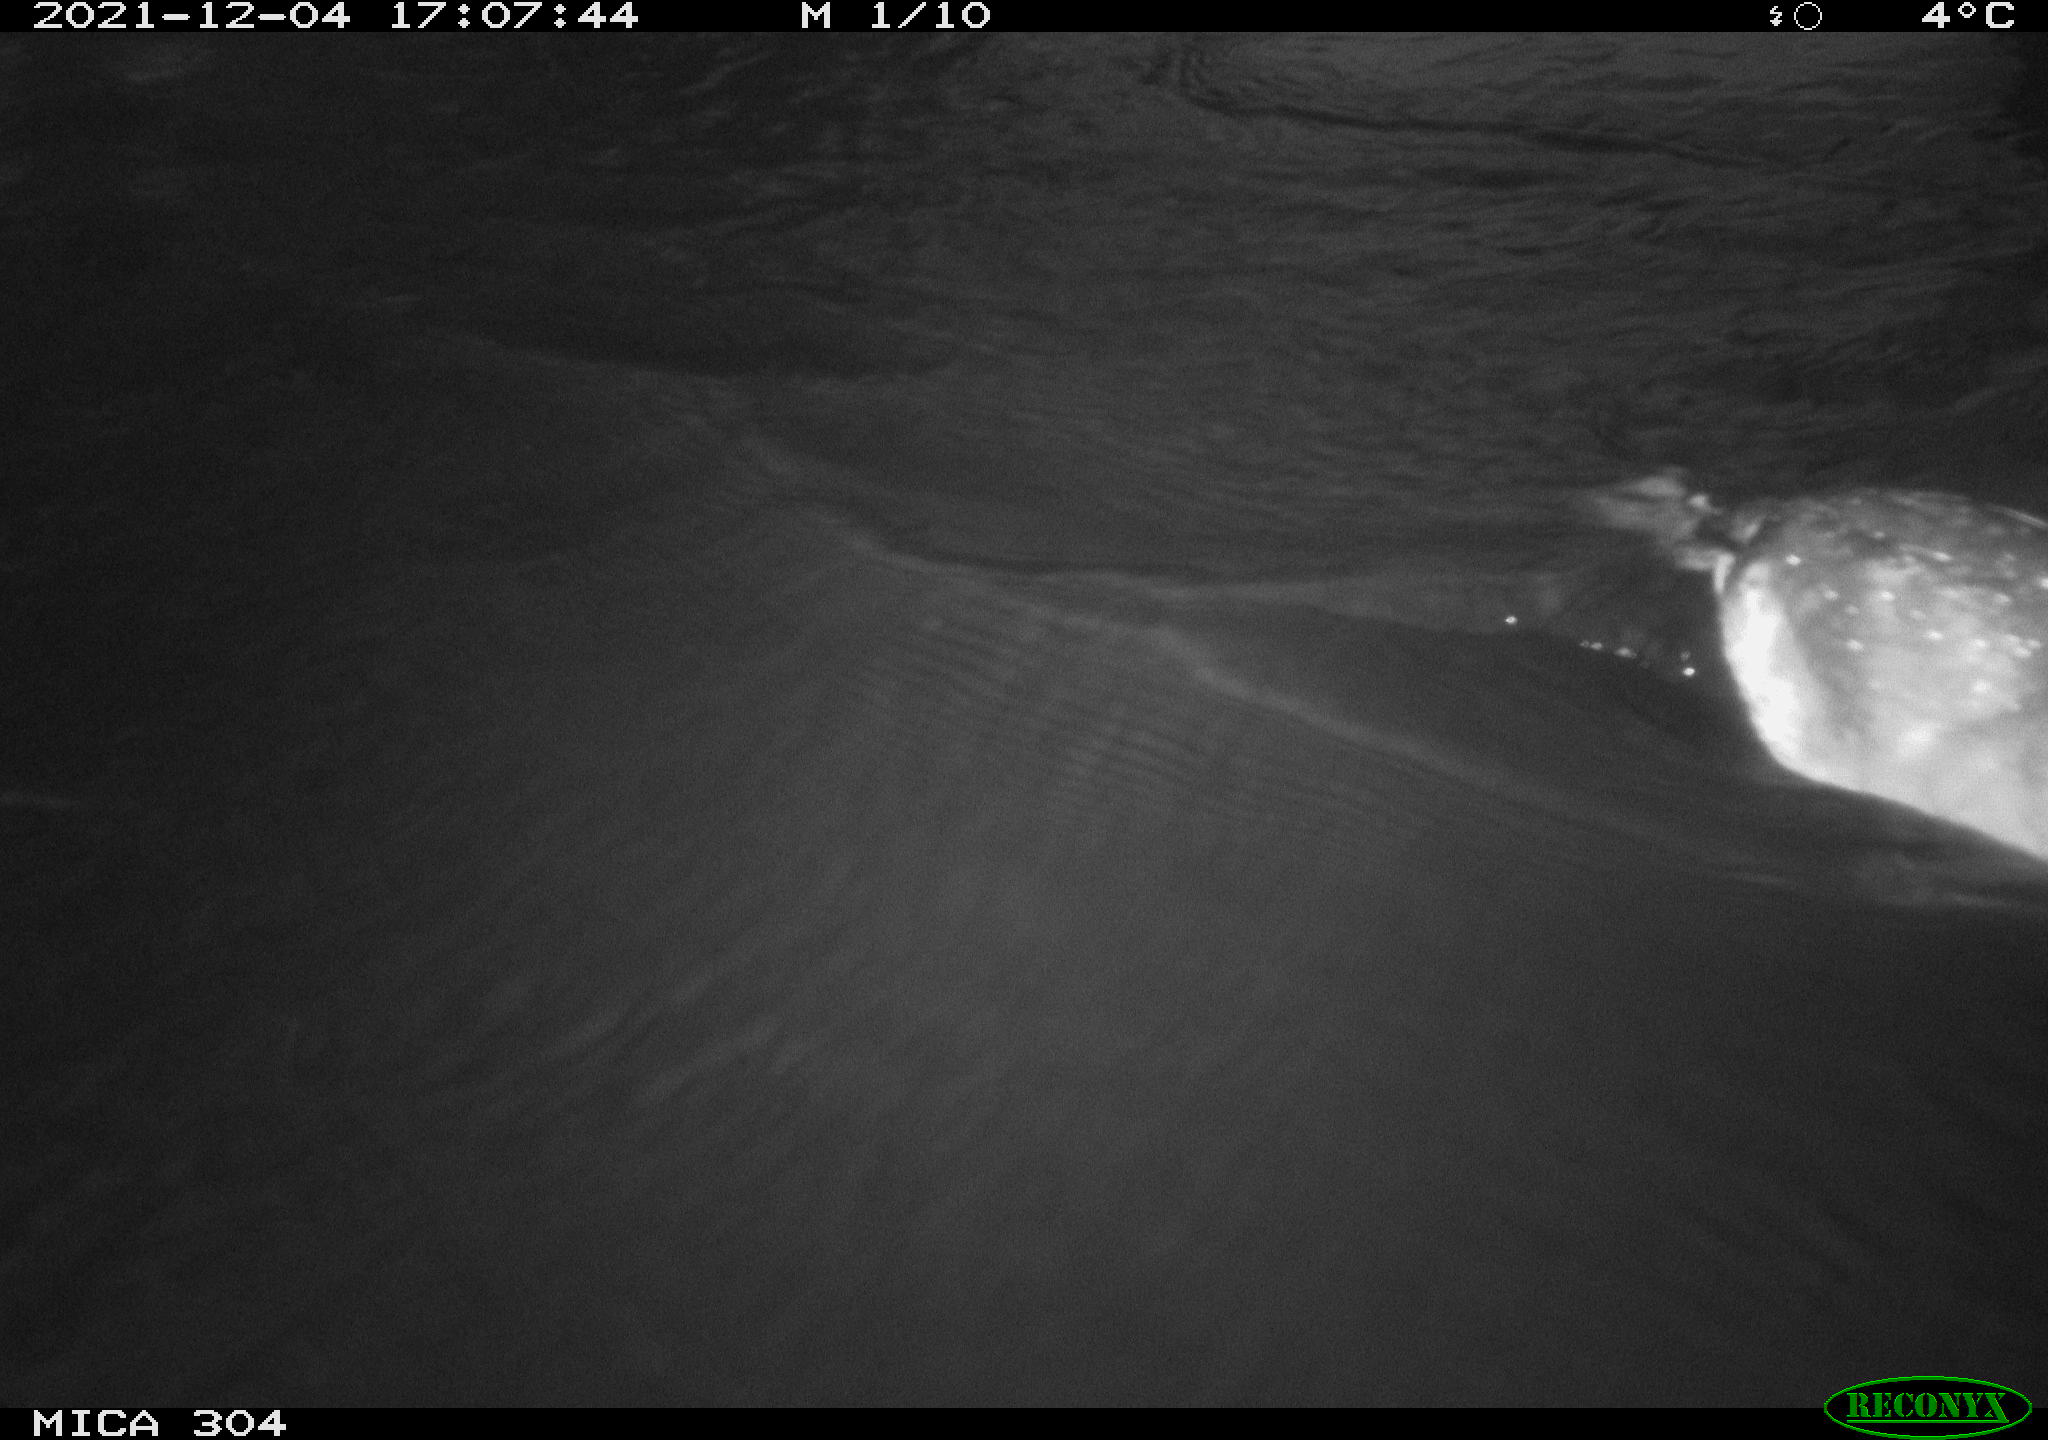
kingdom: Animalia
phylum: Chordata
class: Aves
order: Gruiformes
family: Rallidae
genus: Fulica
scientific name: Fulica atra
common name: Eurasian coot
